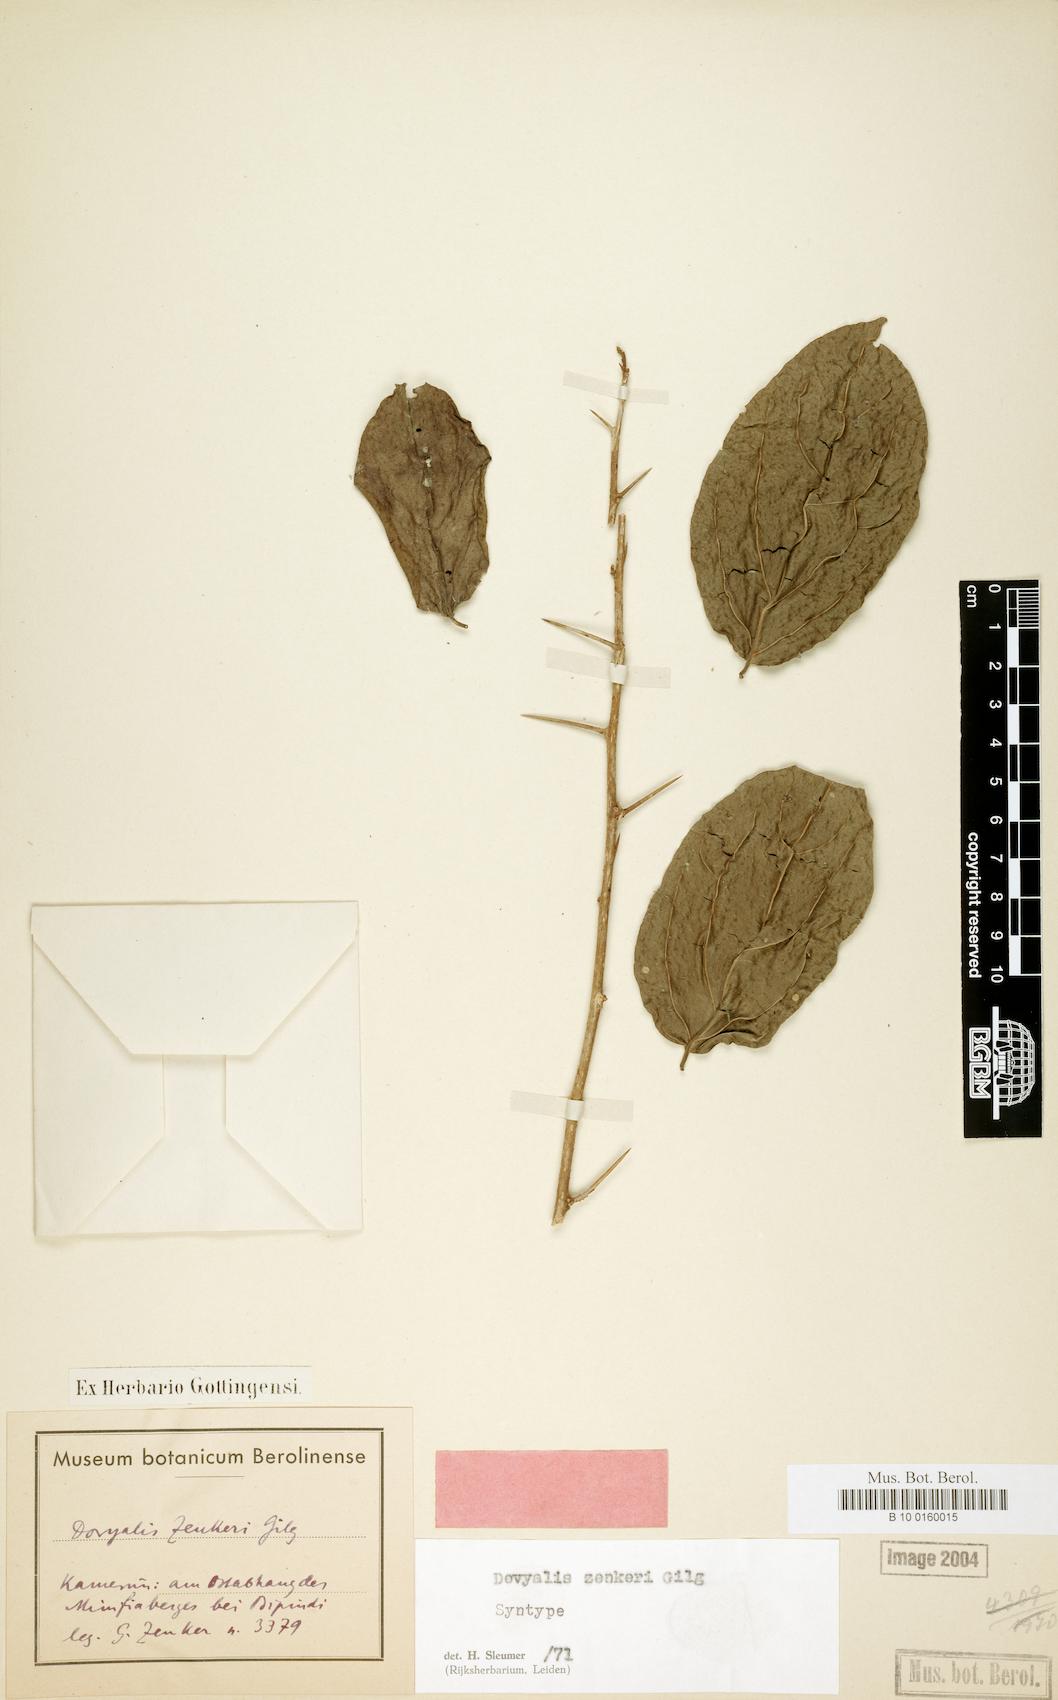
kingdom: Plantae
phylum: Tracheophyta
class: Magnoliopsida
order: Malpighiales
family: Salicaceae
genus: Dovyalis
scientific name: Dovyalis zenkeri
